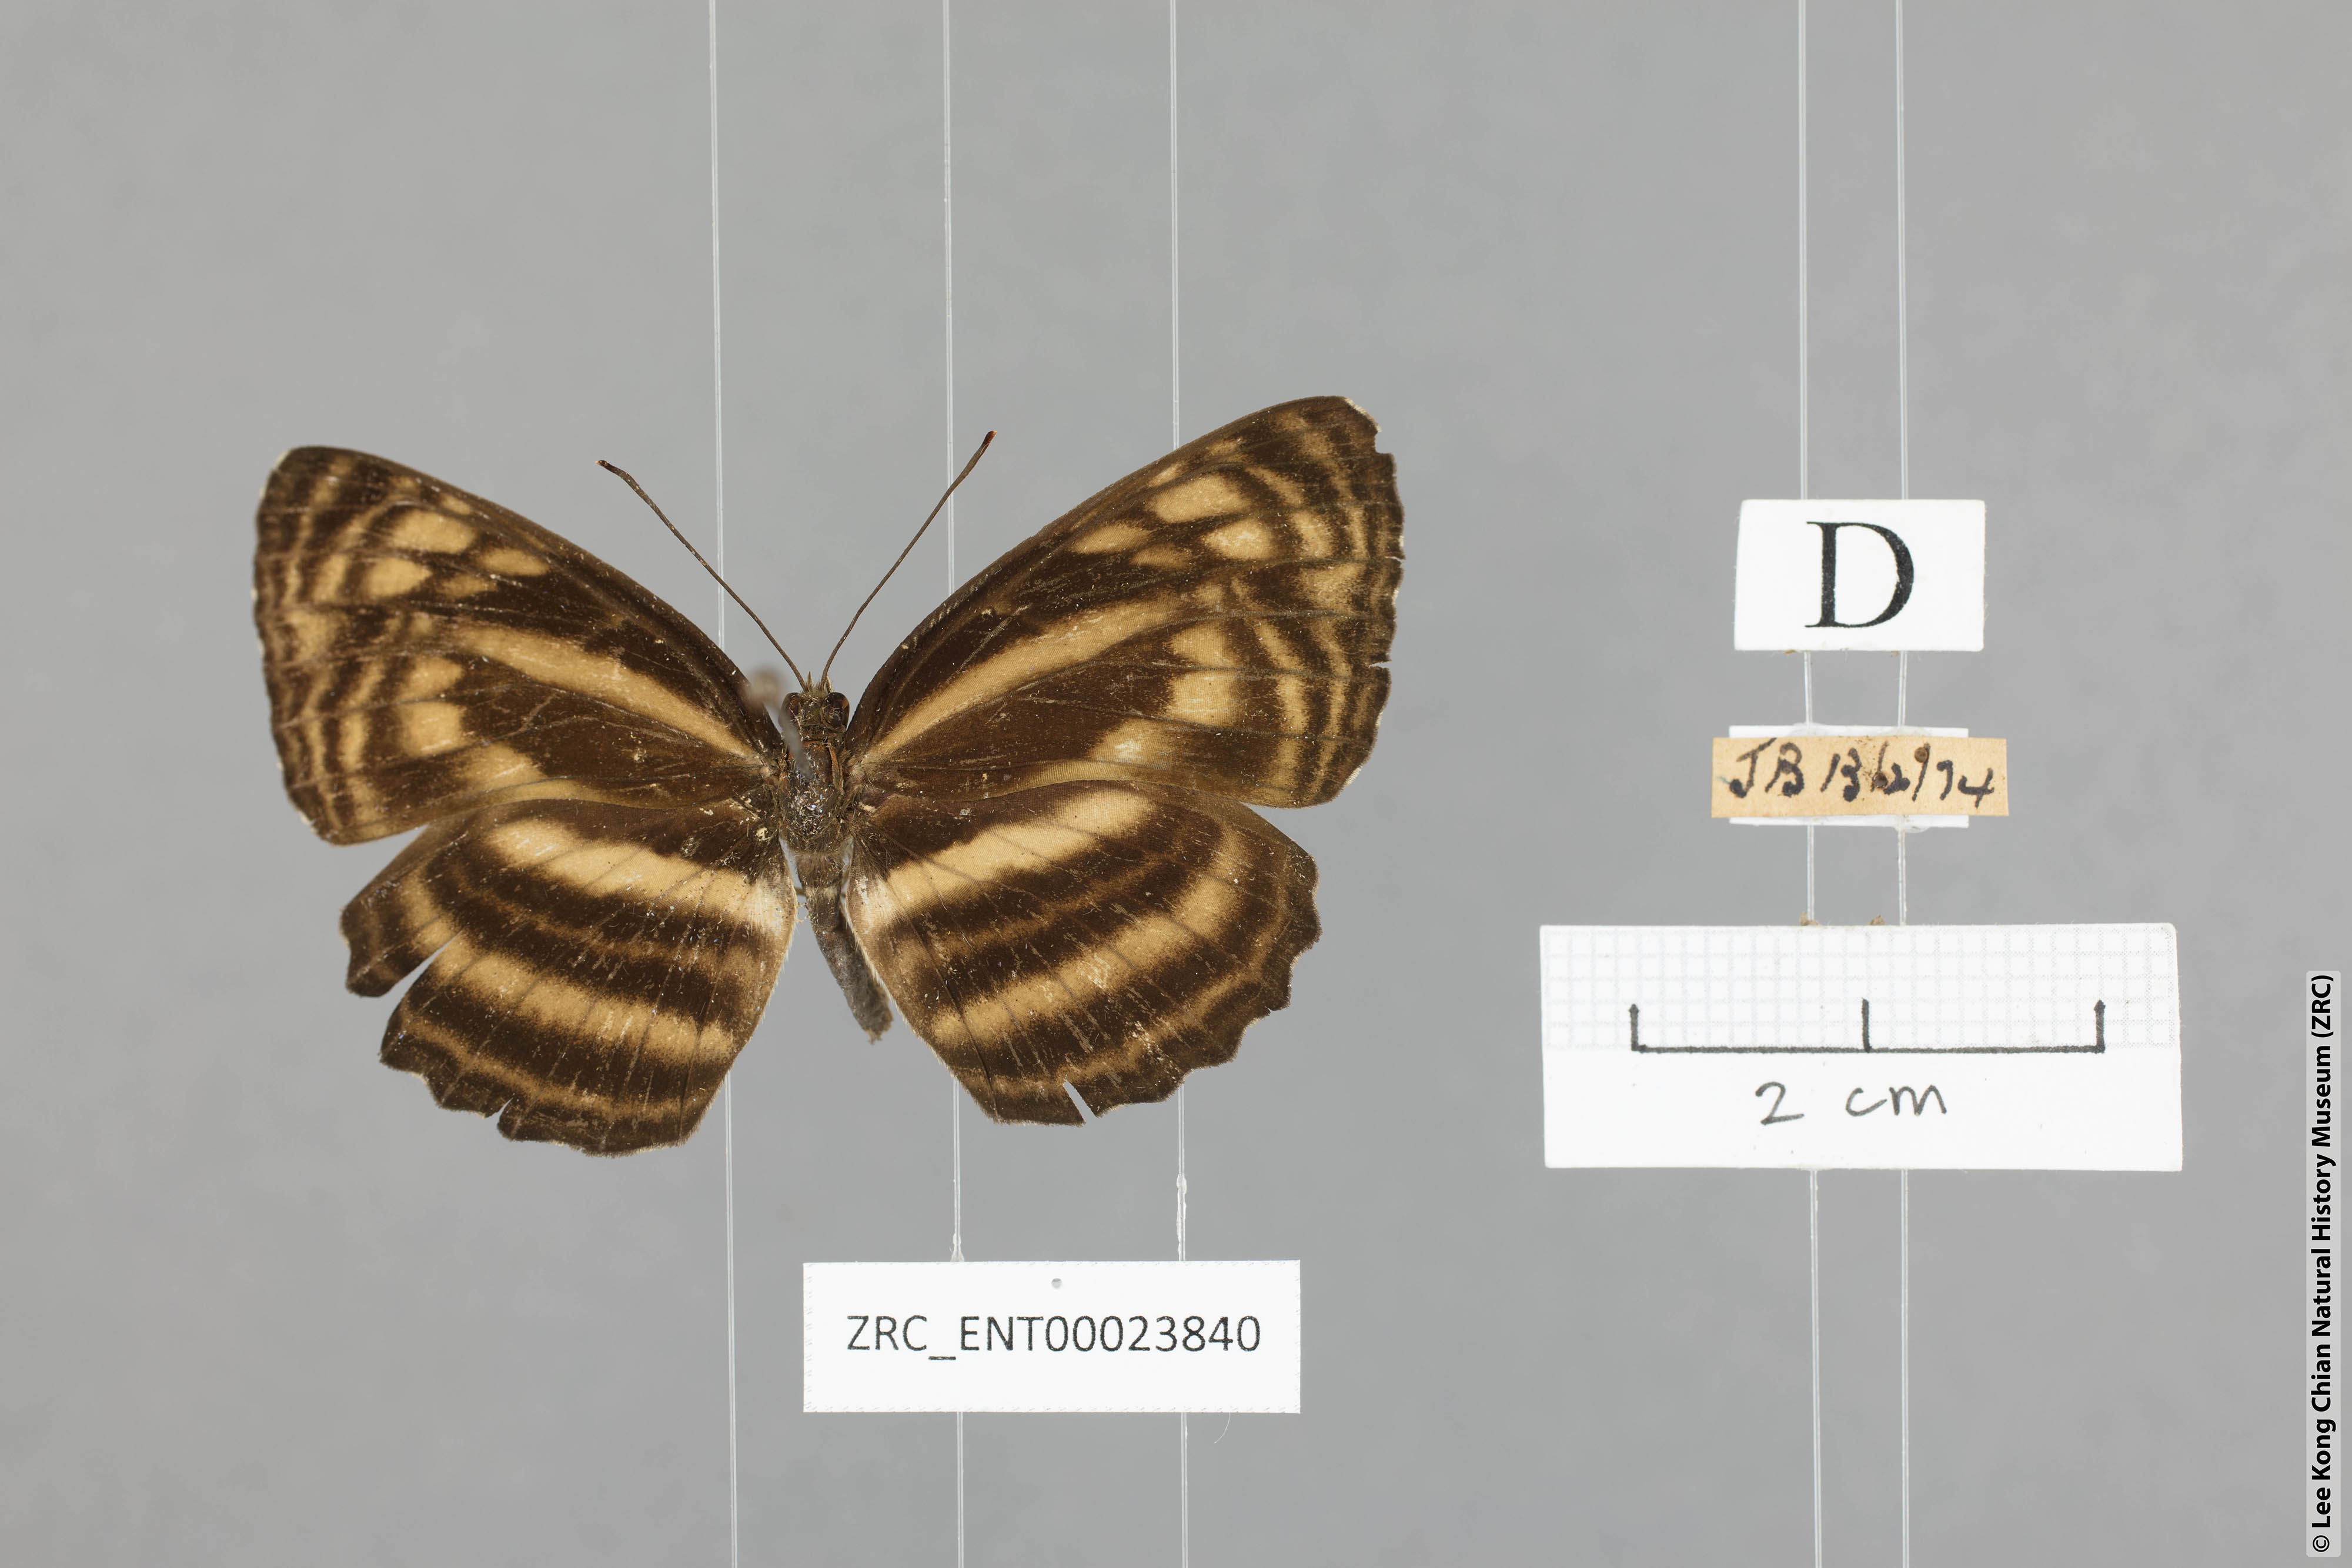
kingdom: Animalia
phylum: Arthropoda
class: Insecta
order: Lepidoptera
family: Nymphalidae
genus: Lasippa
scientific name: Lasippa monata
